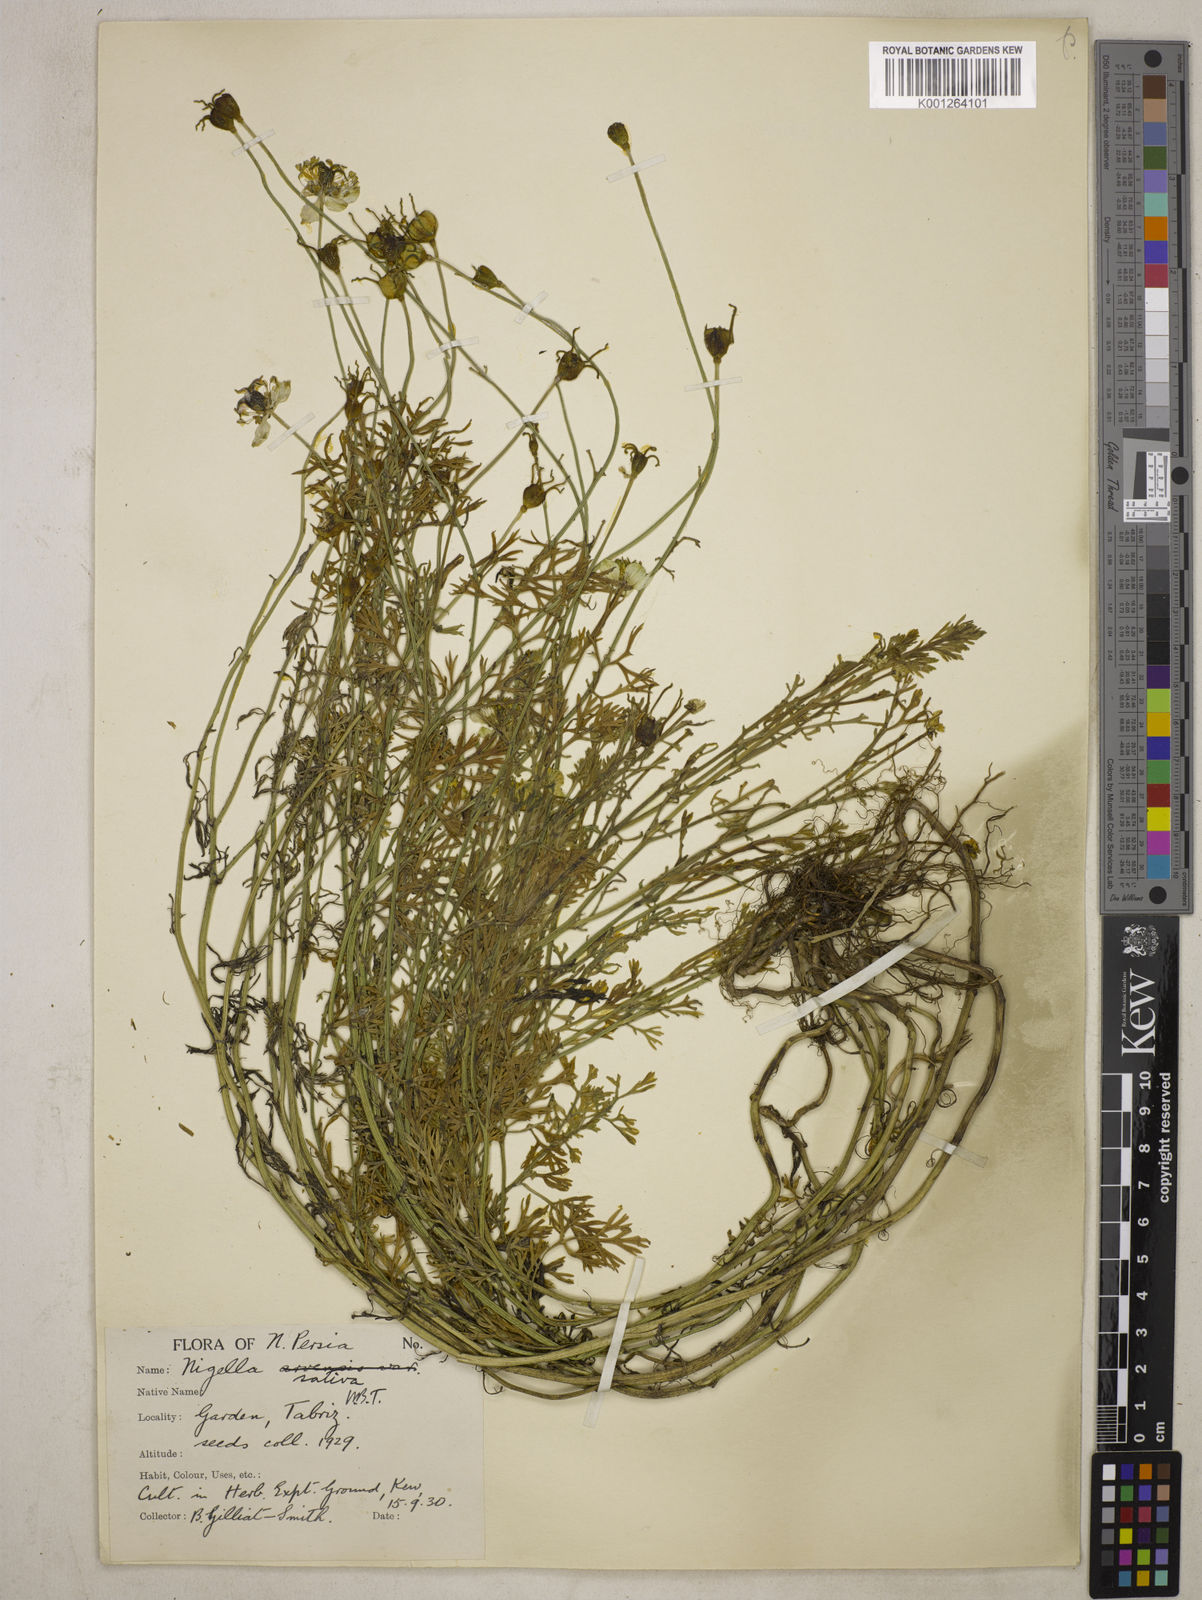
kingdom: Plantae
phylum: Tracheophyta
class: Magnoliopsida
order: Ranunculales
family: Ranunculaceae
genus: Nigella
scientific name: Nigella sativa
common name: Black-cumin
